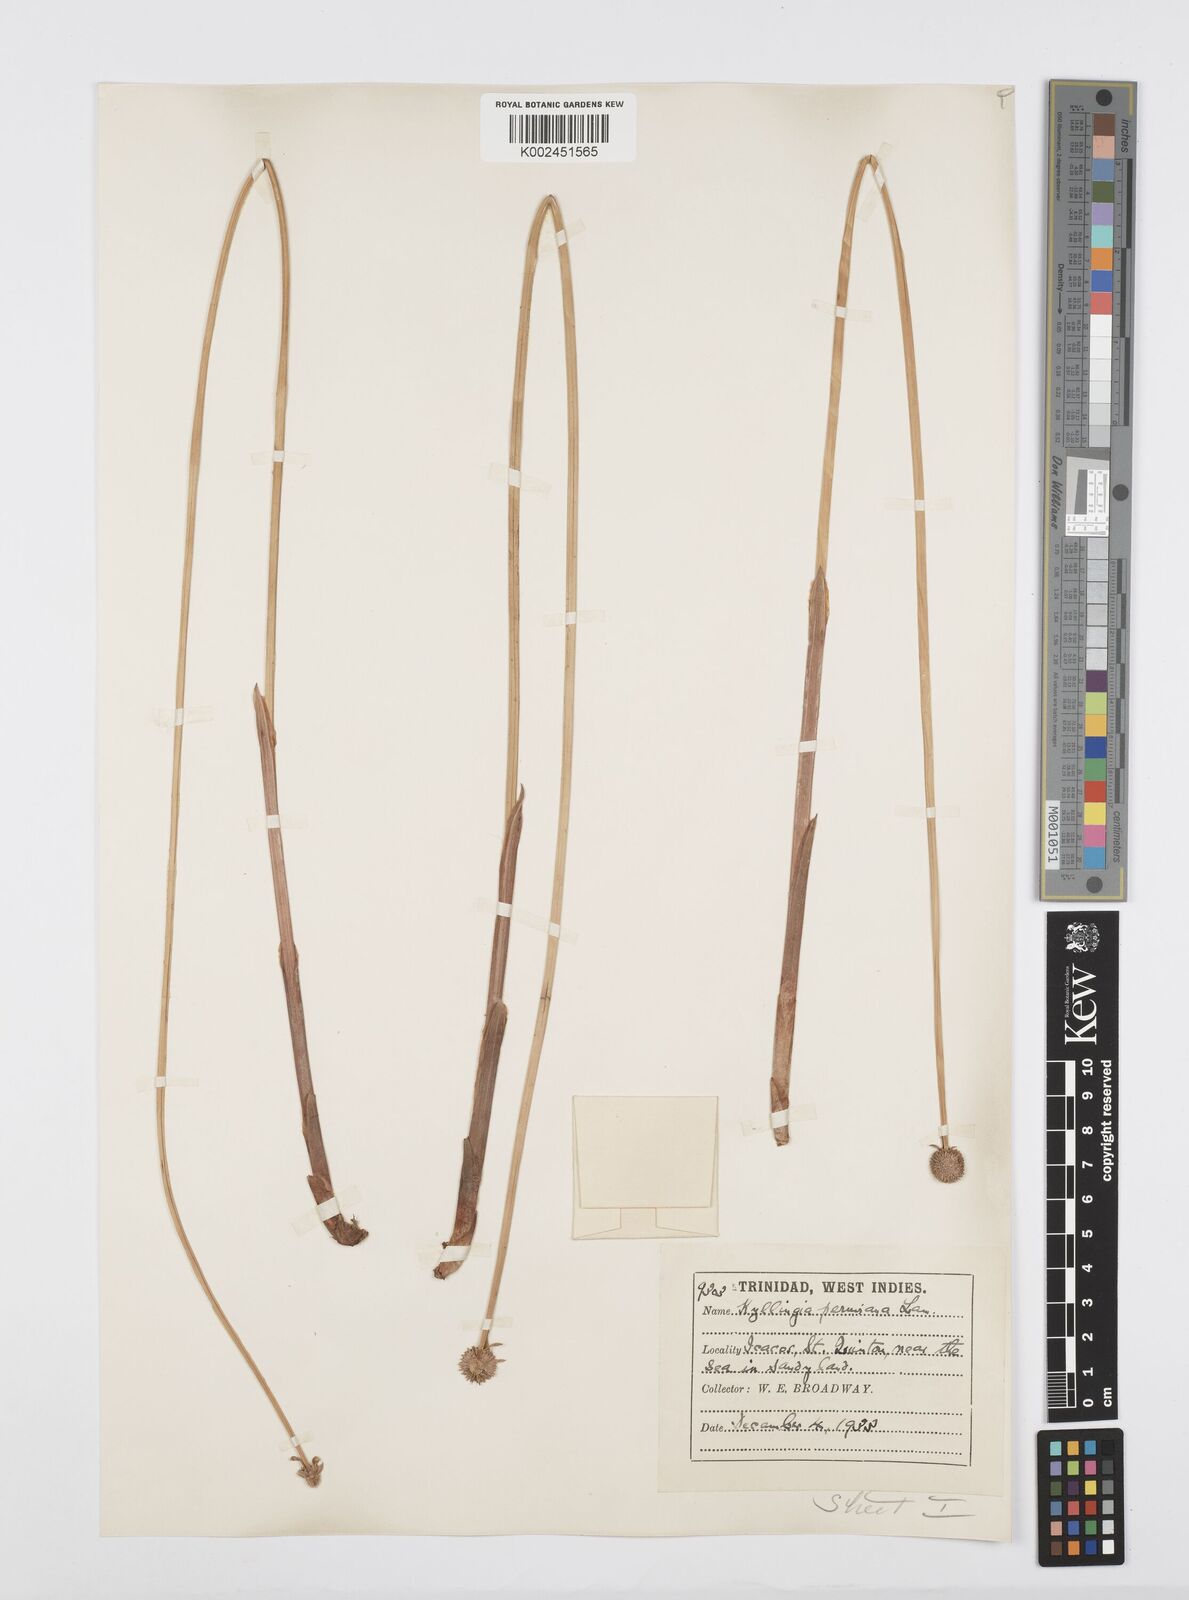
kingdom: Plantae
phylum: Tracheophyta
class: Liliopsida
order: Poales
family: Cyperaceae
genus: Cyperus
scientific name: Cyperus obtusatus
